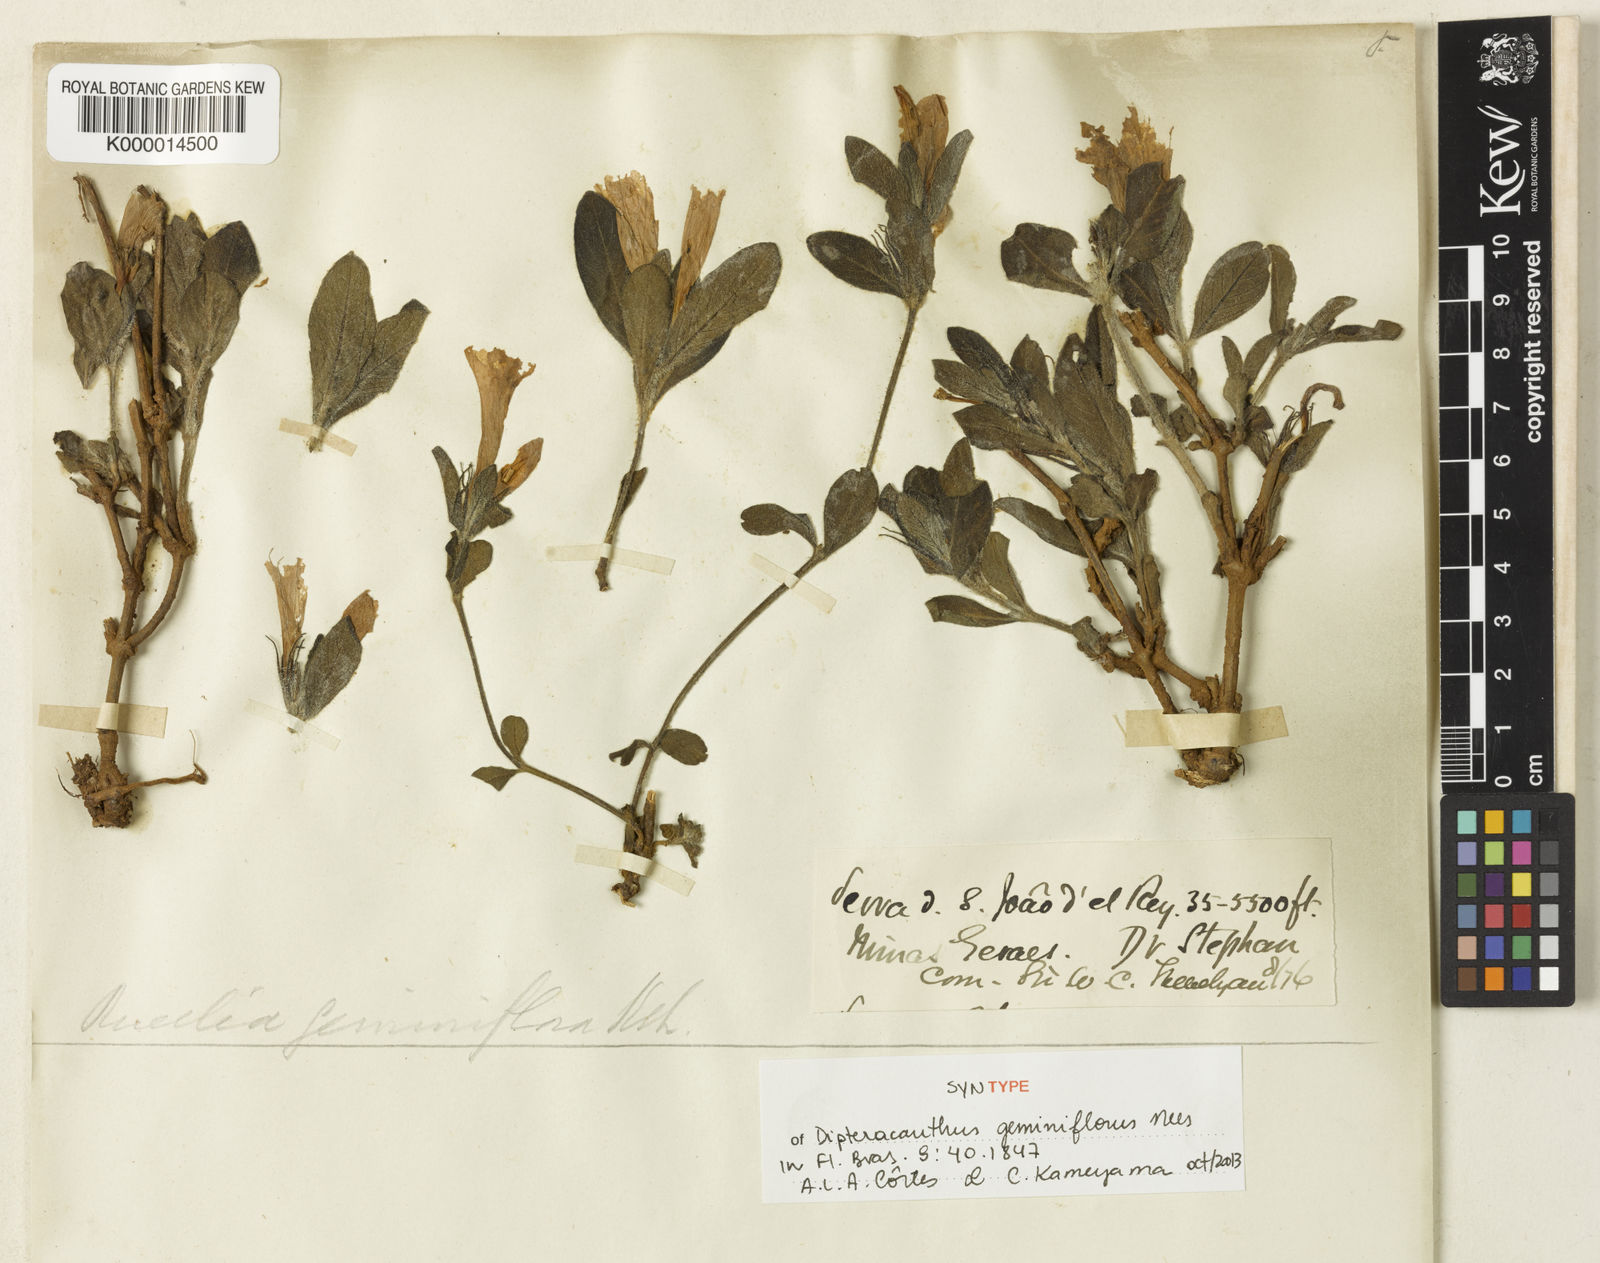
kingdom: Plantae
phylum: Tracheophyta
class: Magnoliopsida
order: Lamiales
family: Acanthaceae
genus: Ruellia
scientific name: Ruellia geminiflora
